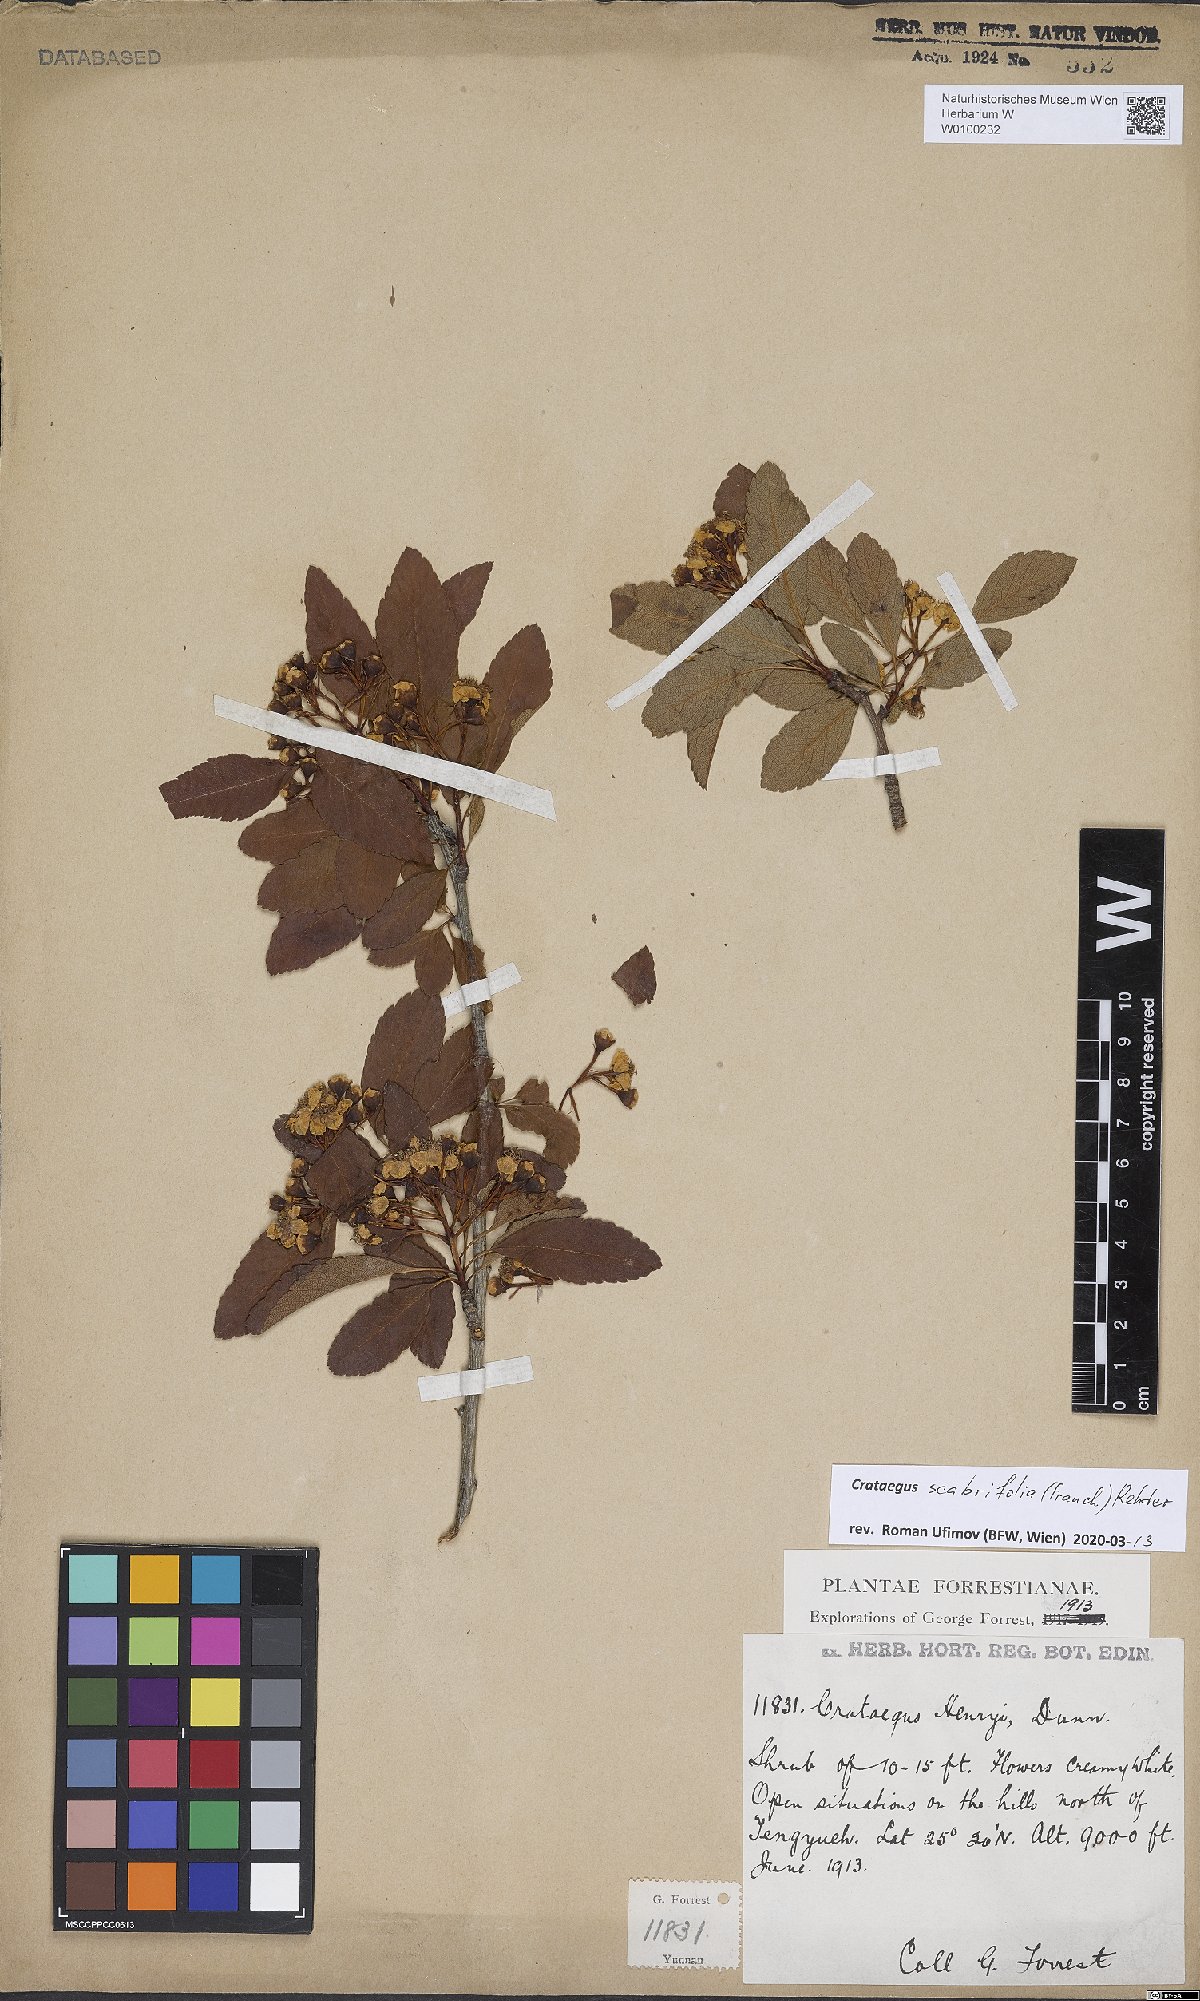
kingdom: Plantae
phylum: Tracheophyta
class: Magnoliopsida
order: Rosales
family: Rosaceae
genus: Crataegus
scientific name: Crataegus scabrifolia
